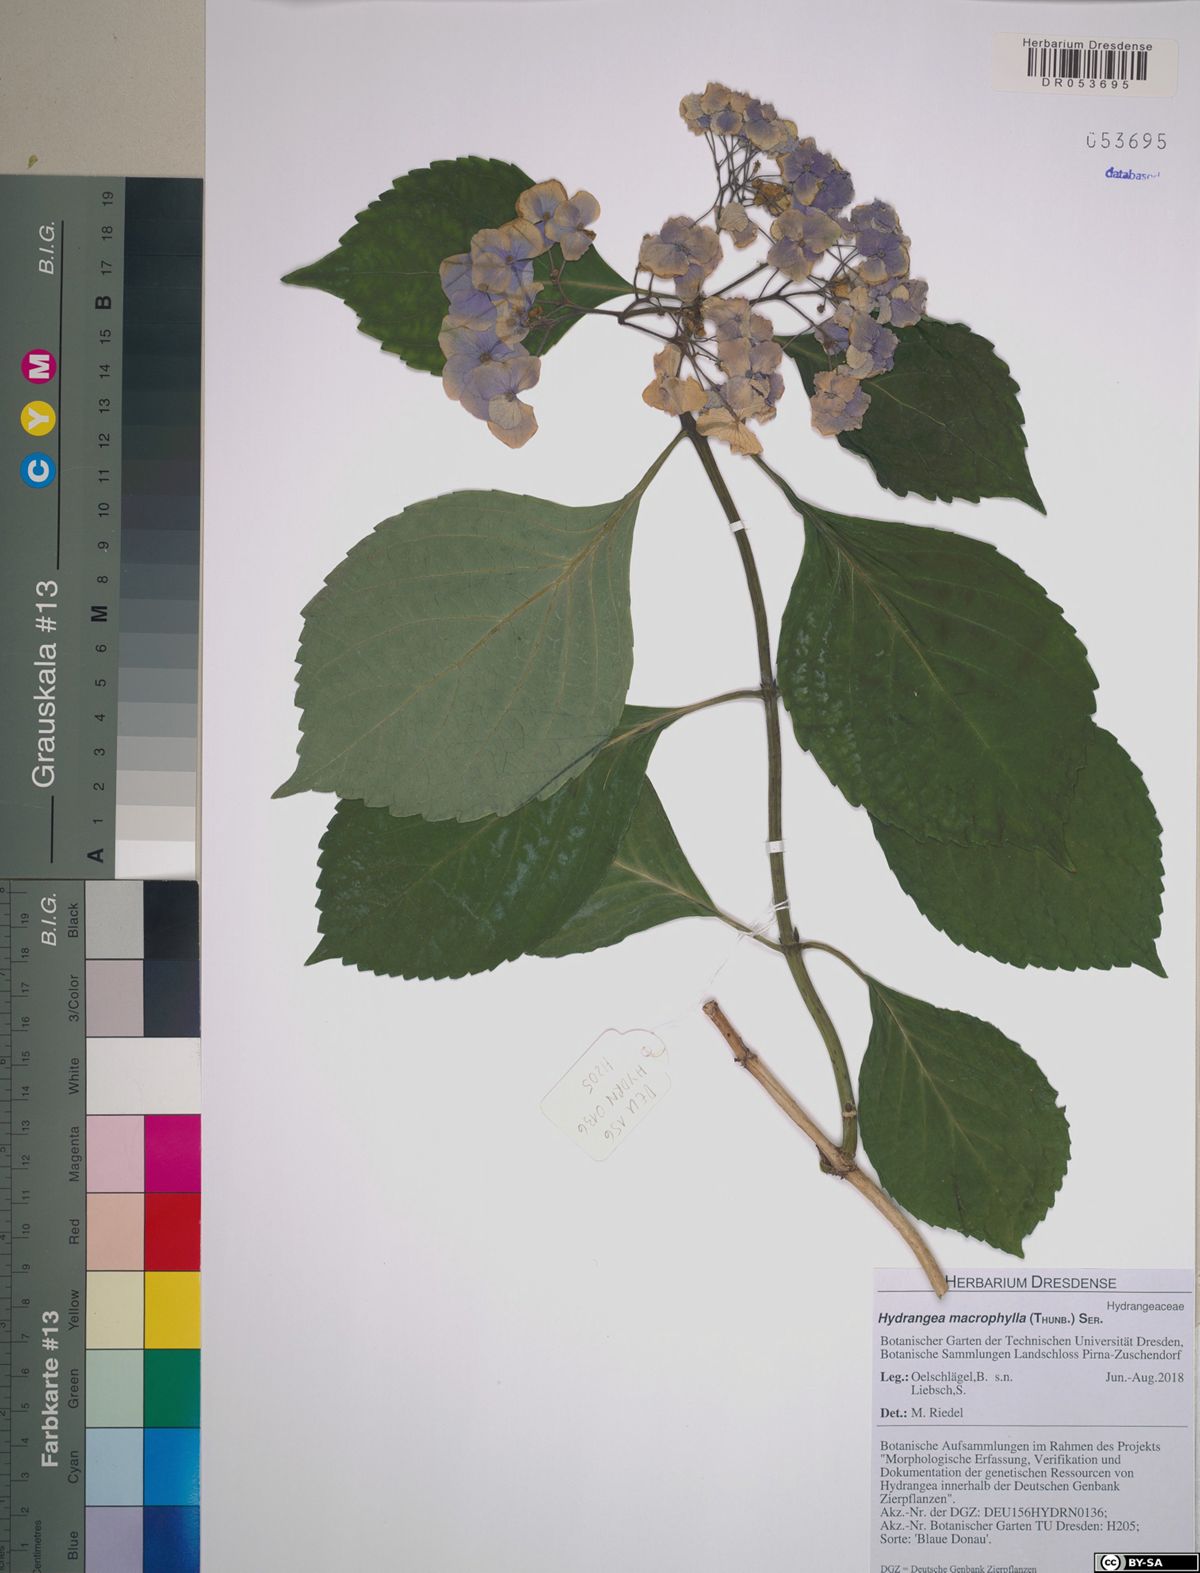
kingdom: Plantae
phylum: Tracheophyta
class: Magnoliopsida
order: Cornales
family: Hydrangeaceae
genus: Hydrangea
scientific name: Hydrangea macrophylla
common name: Hydrangea
